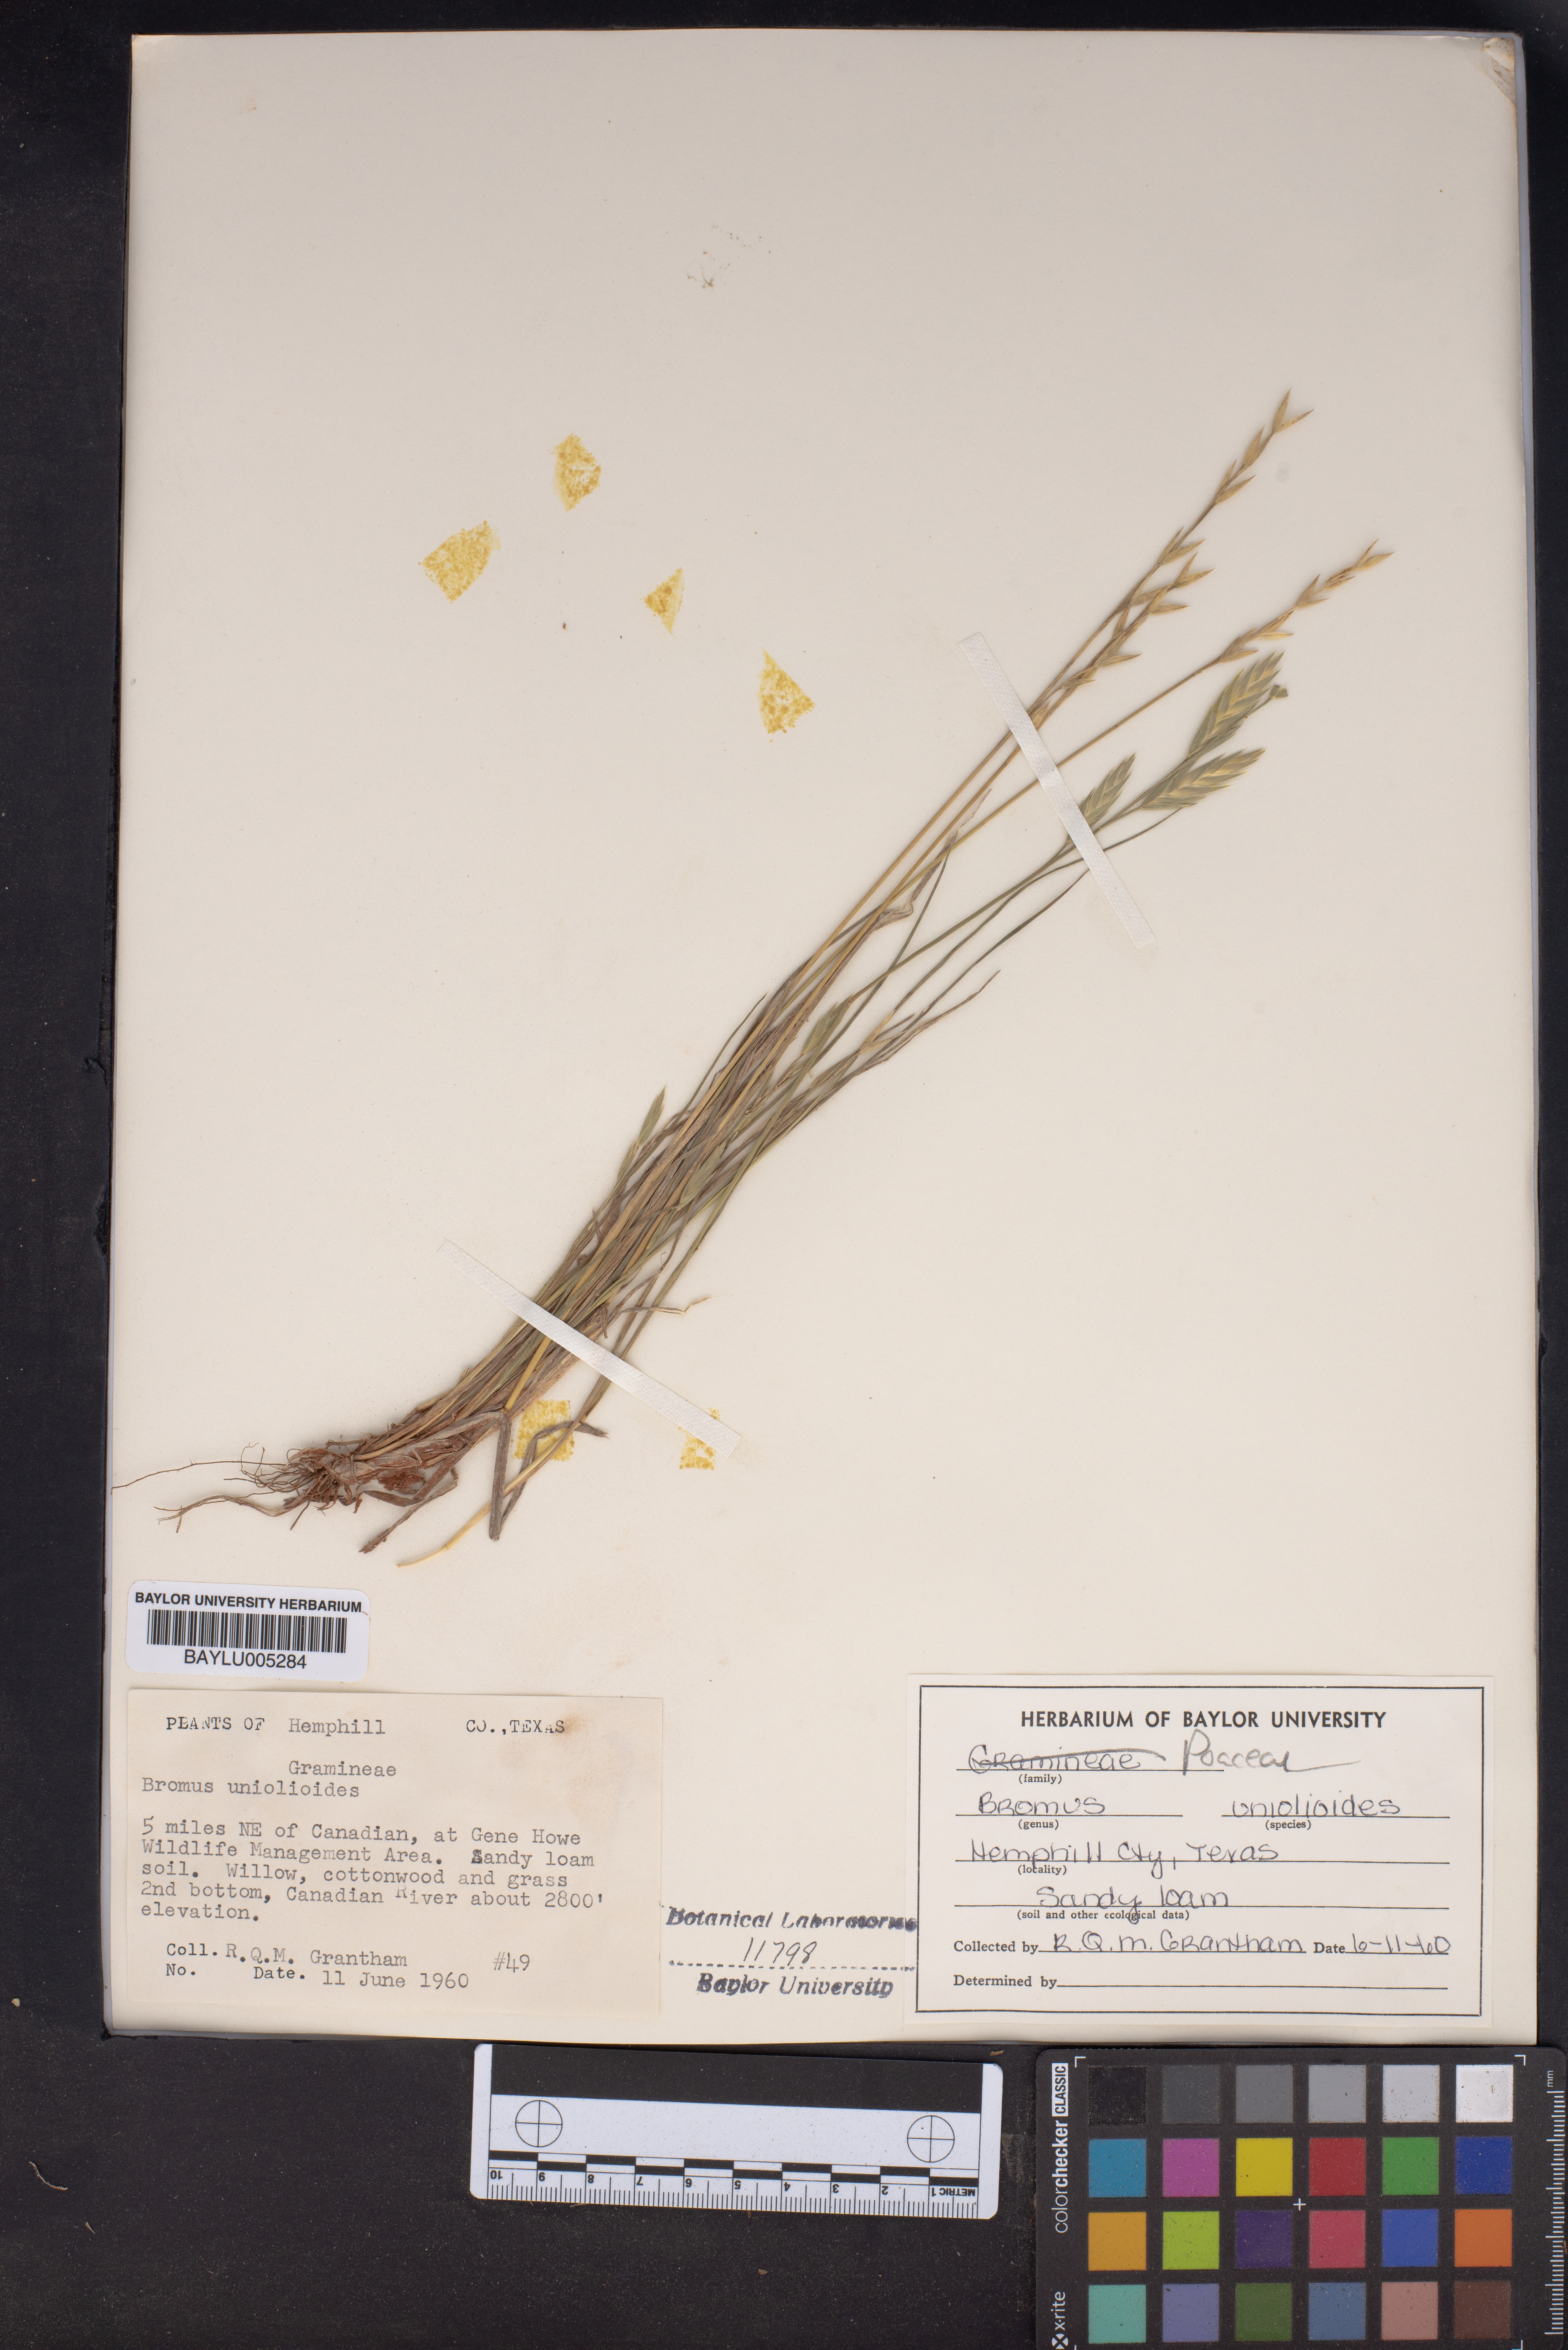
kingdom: Plantae
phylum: Tracheophyta
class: Liliopsida
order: Poales
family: Poaceae
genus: Bromus
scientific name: Bromus catharticus
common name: Rescuegrass
